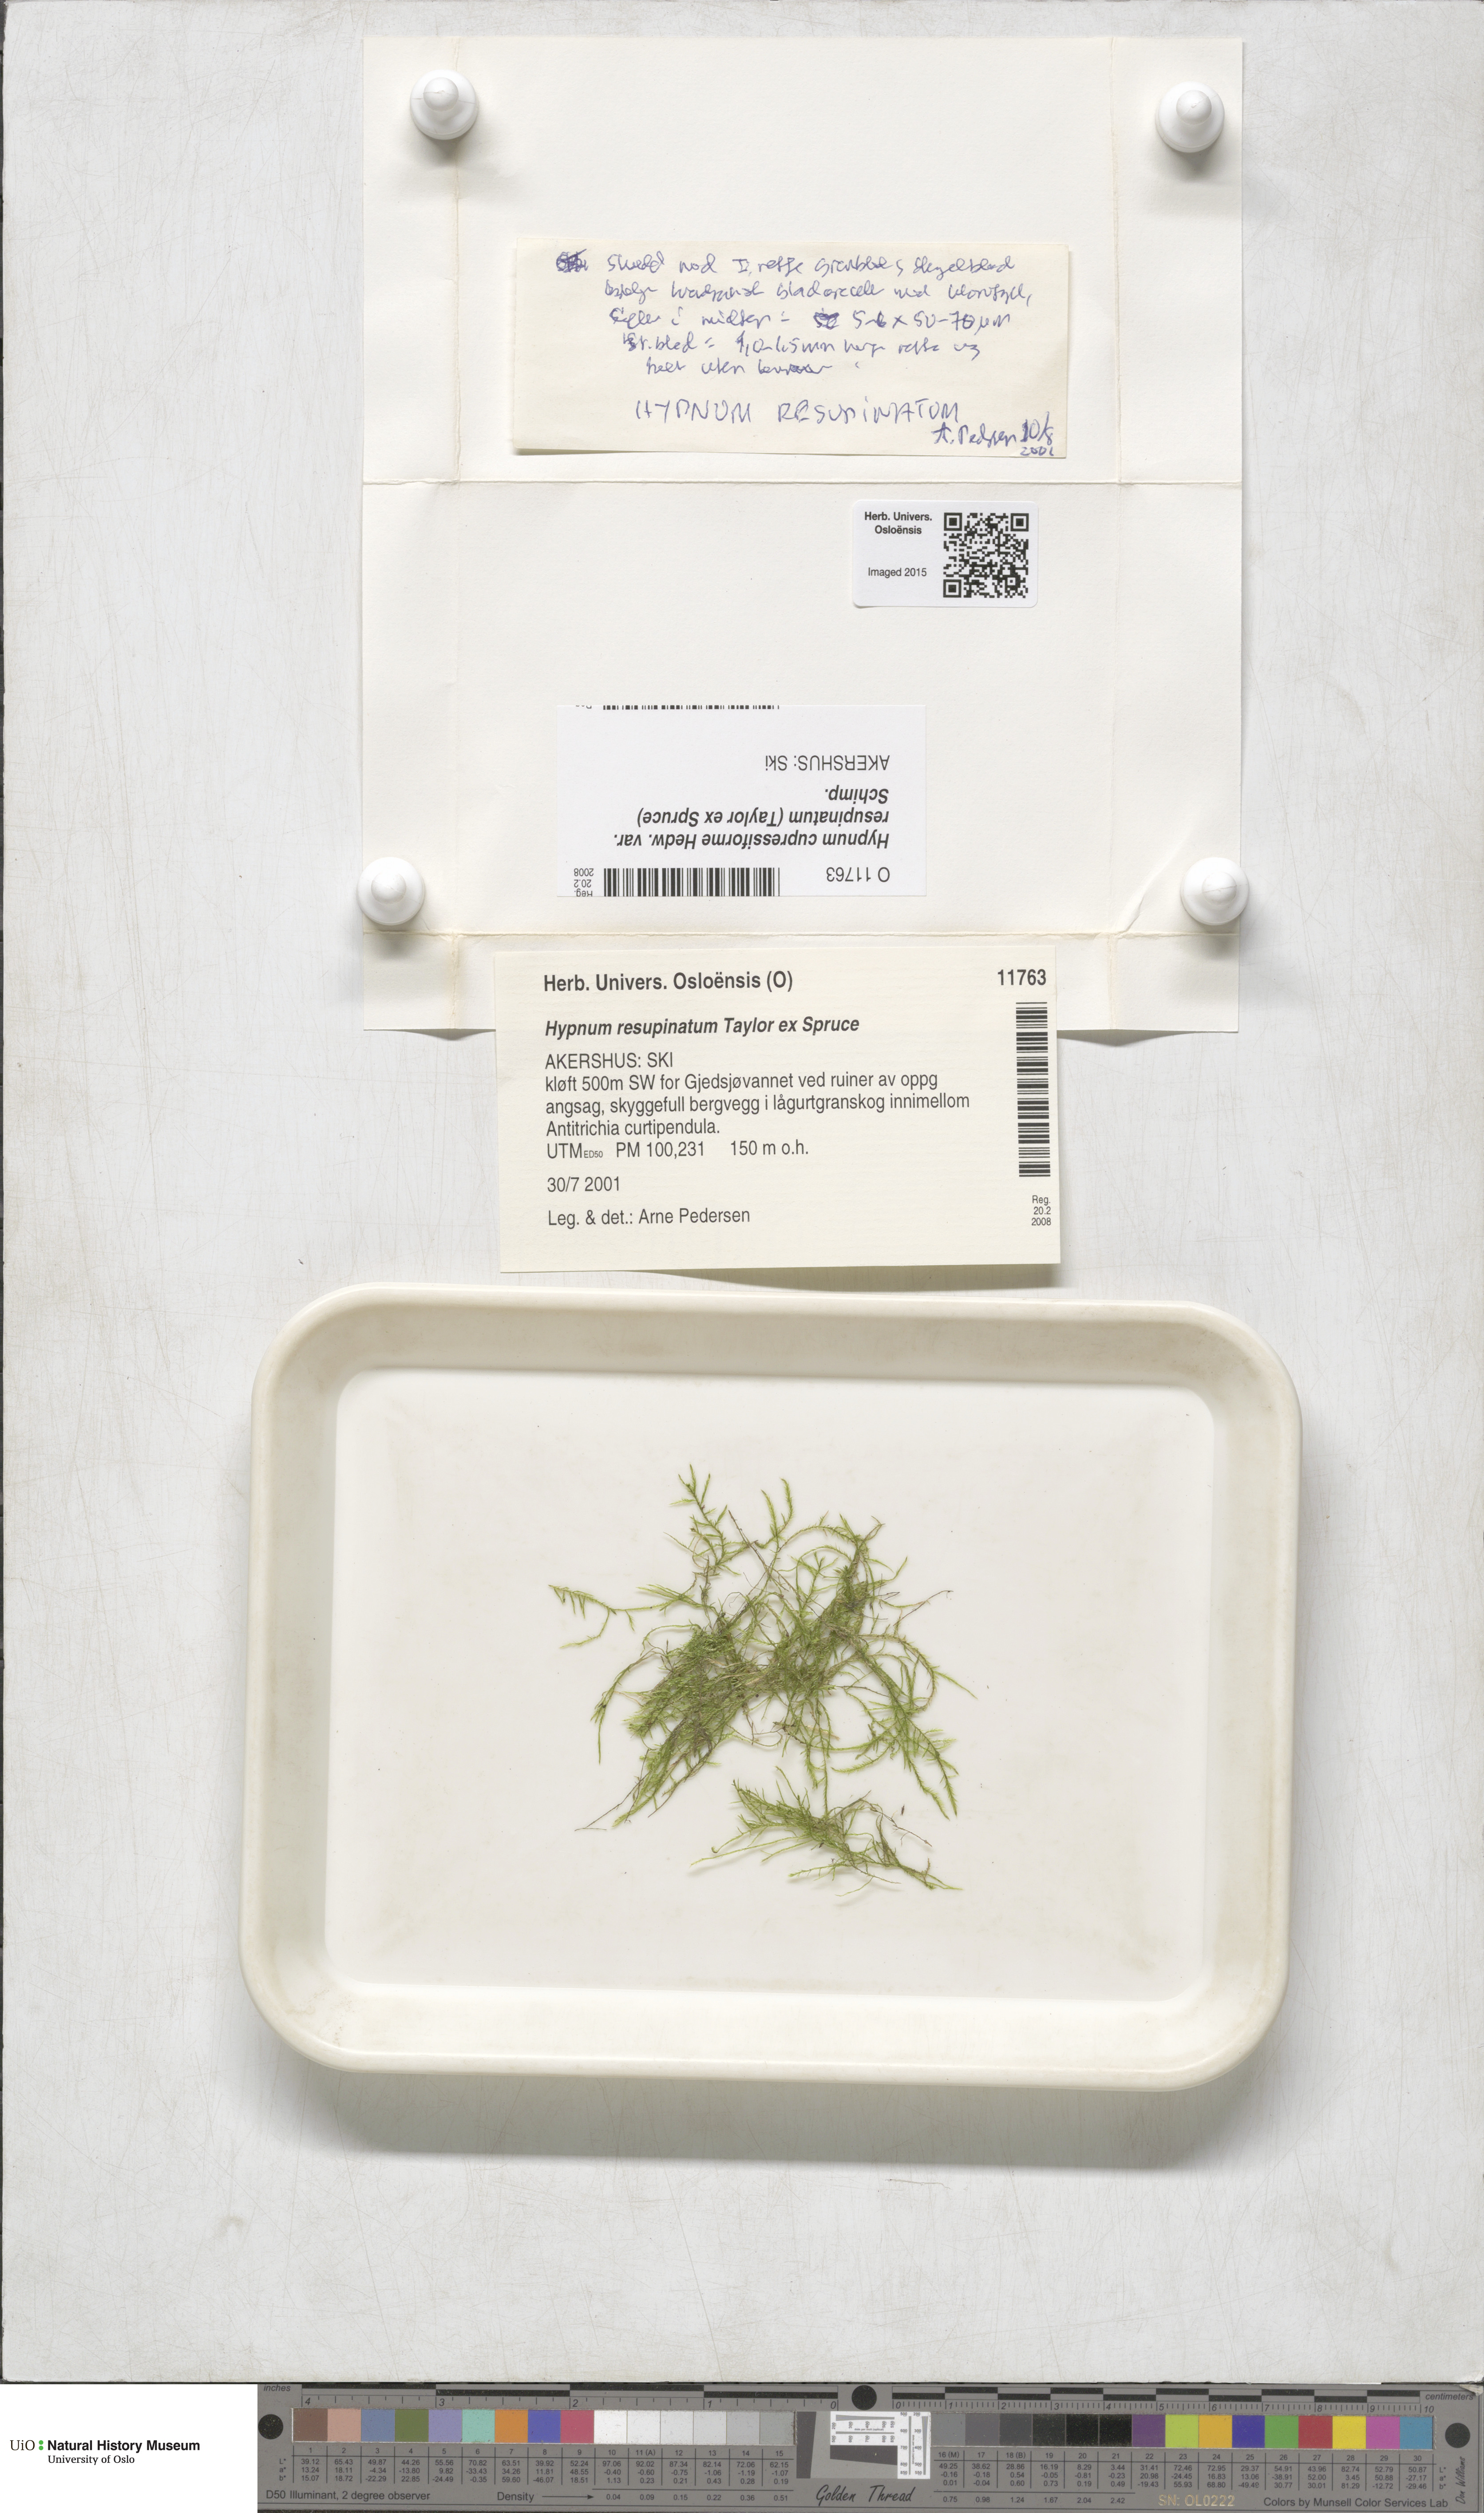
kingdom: Plantae
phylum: Bryophyta
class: Bryopsida
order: Hypnales
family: Hypnaceae
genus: Hypnum
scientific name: Hypnum resupinatum
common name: Supine plait-moss
